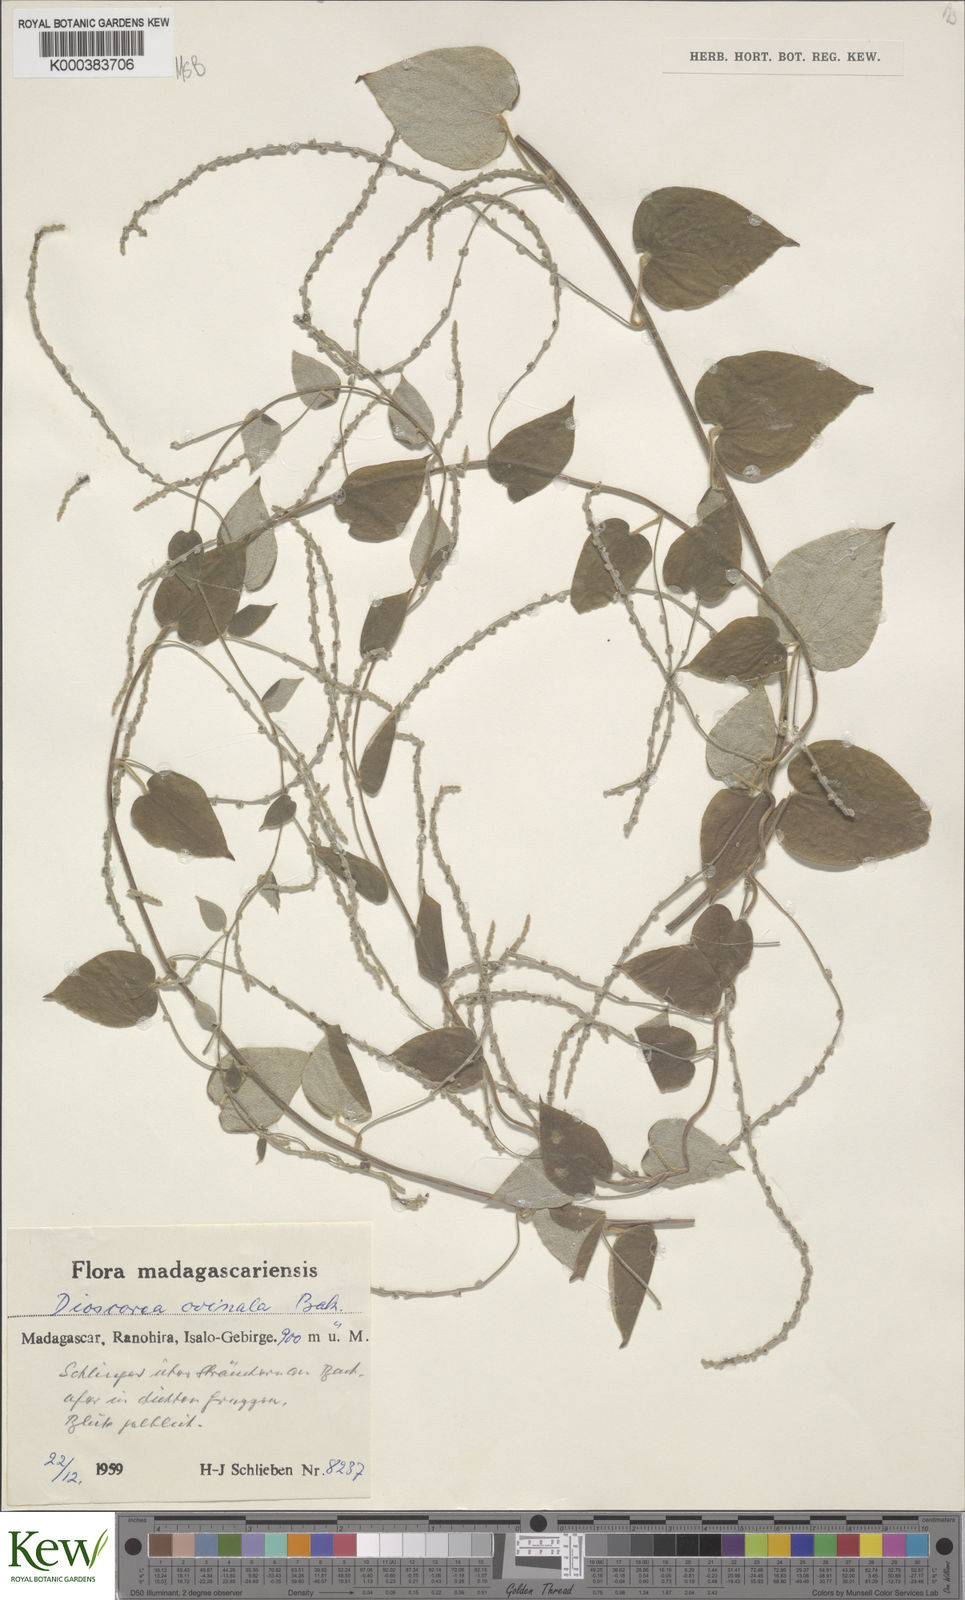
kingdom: Plantae
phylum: Tracheophyta
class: Liliopsida
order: Dioscoreales
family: Dioscoreaceae
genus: Dioscorea
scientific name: Dioscorea ovinala
